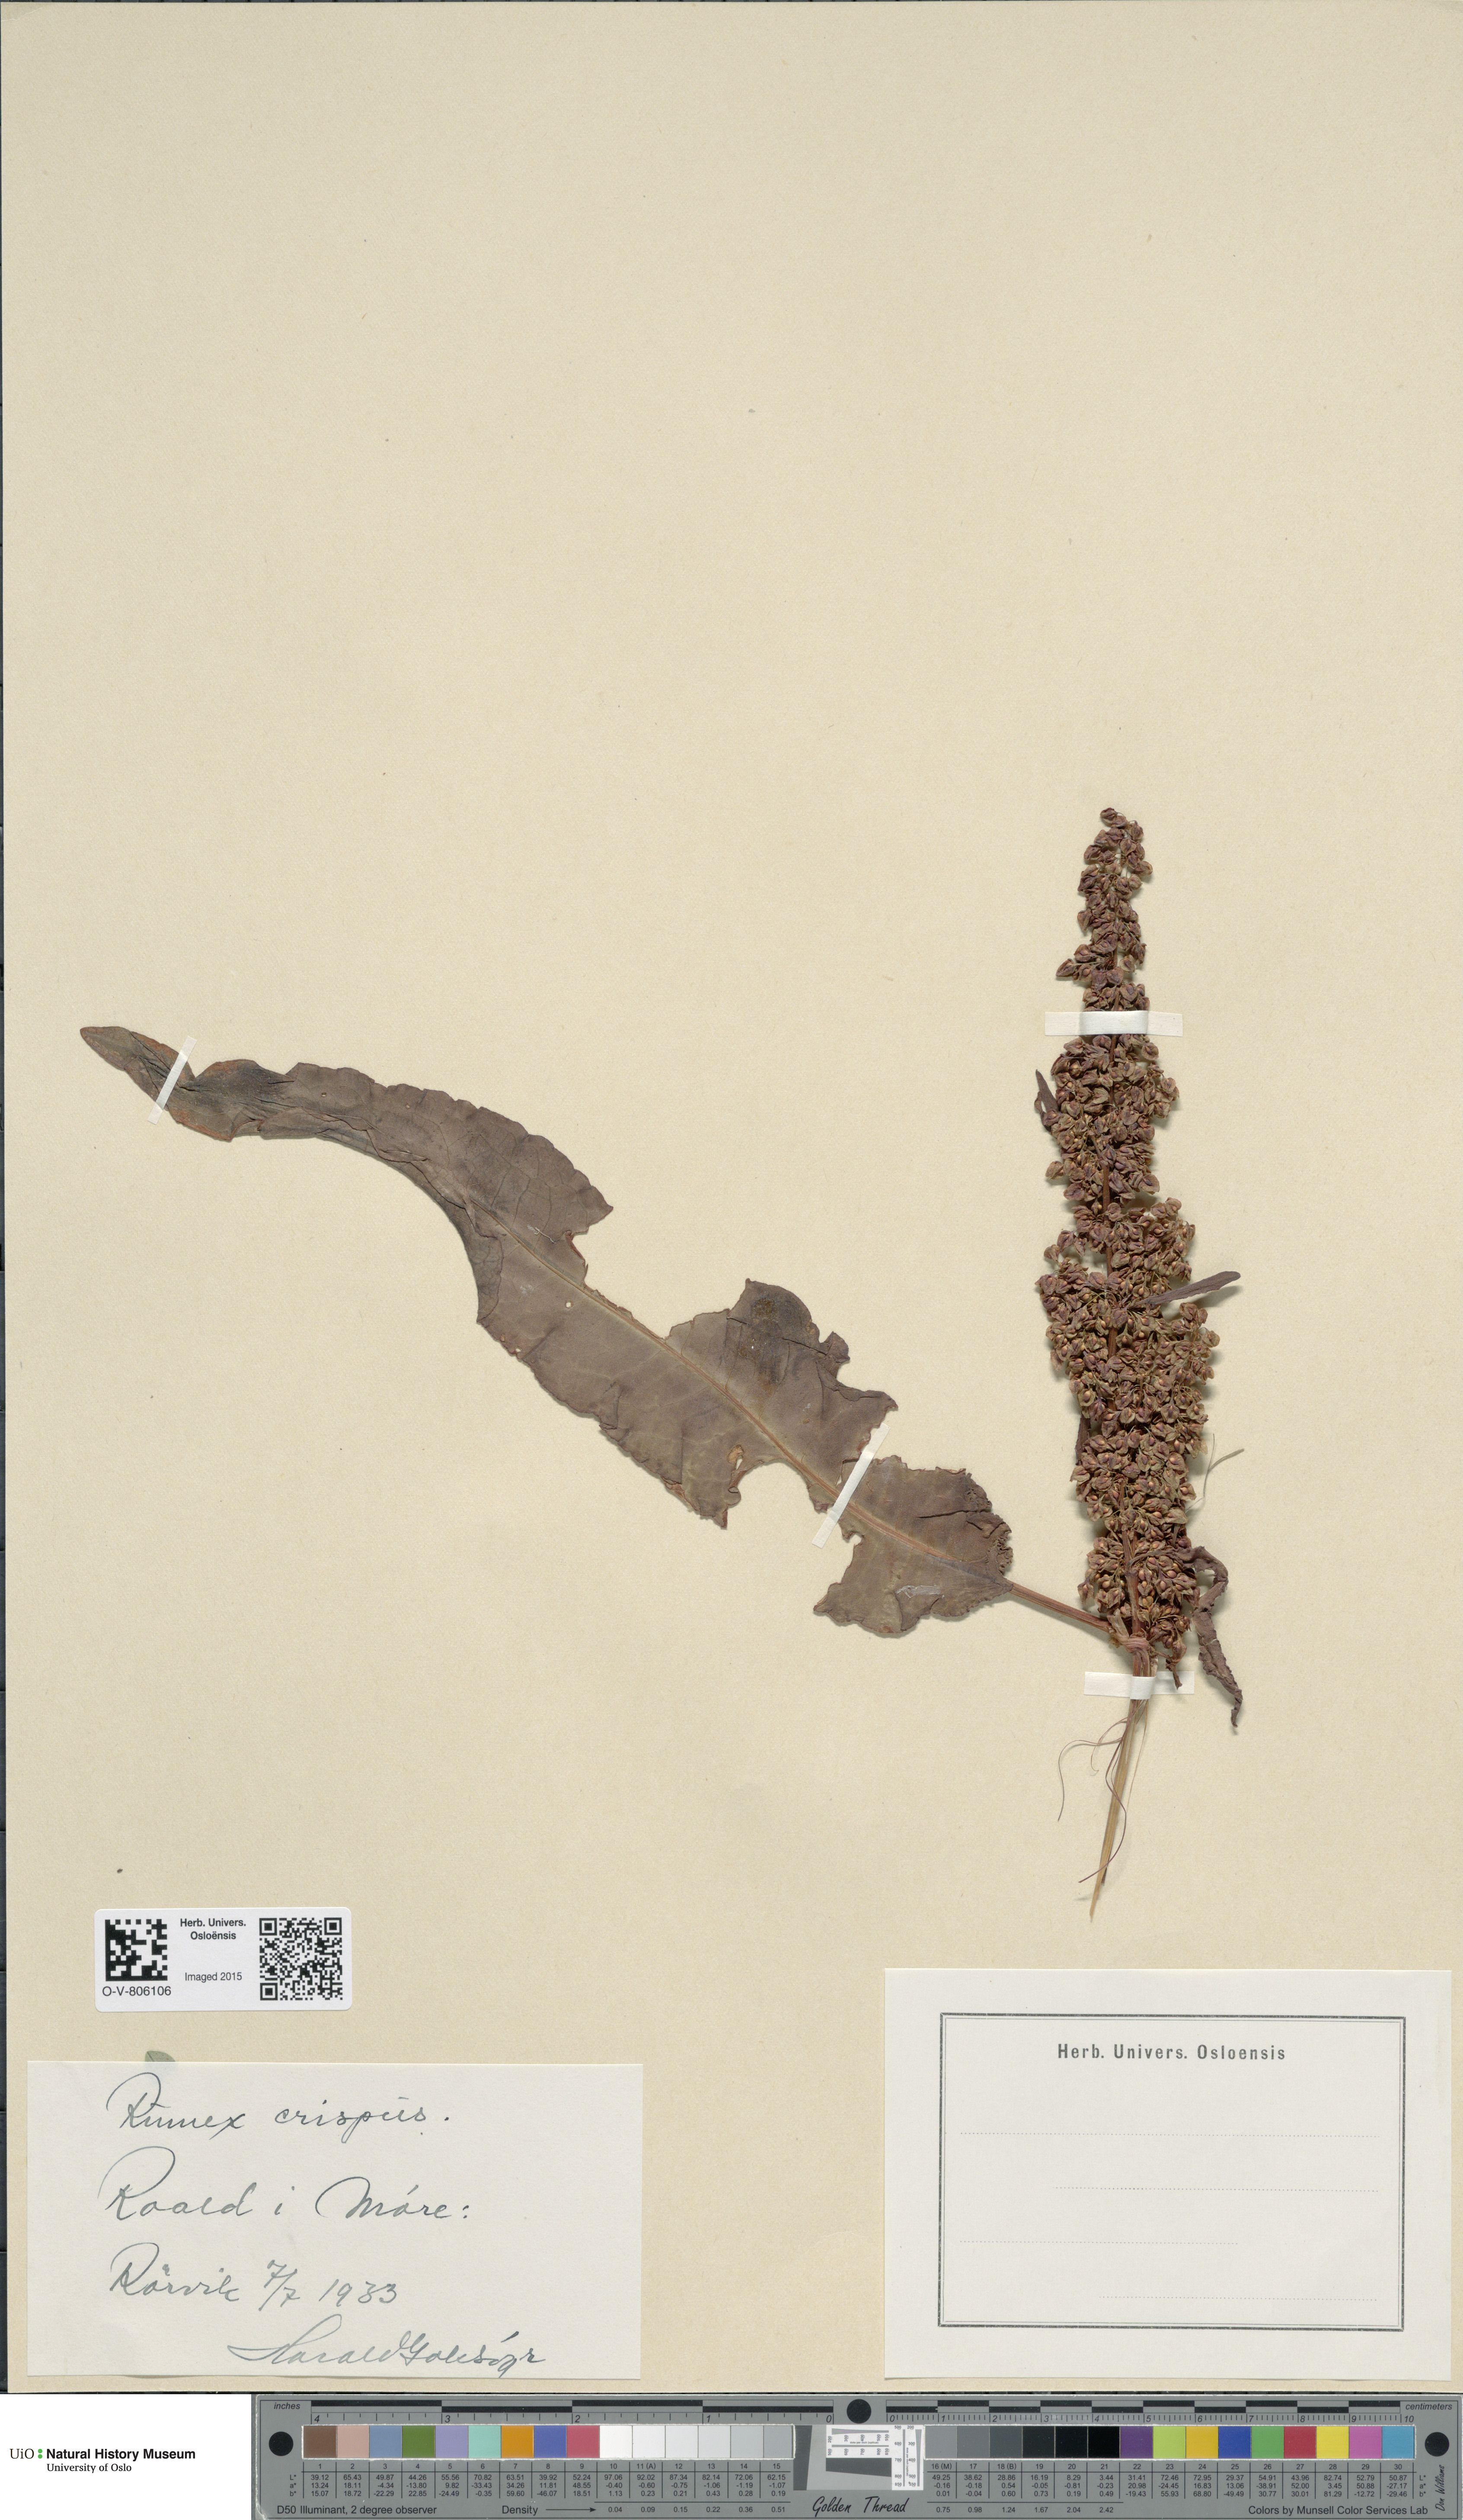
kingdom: Plantae
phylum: Tracheophyta
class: Magnoliopsida
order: Caryophyllales
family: Polygonaceae
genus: Rumex
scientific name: Rumex crispus
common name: Curled dock
